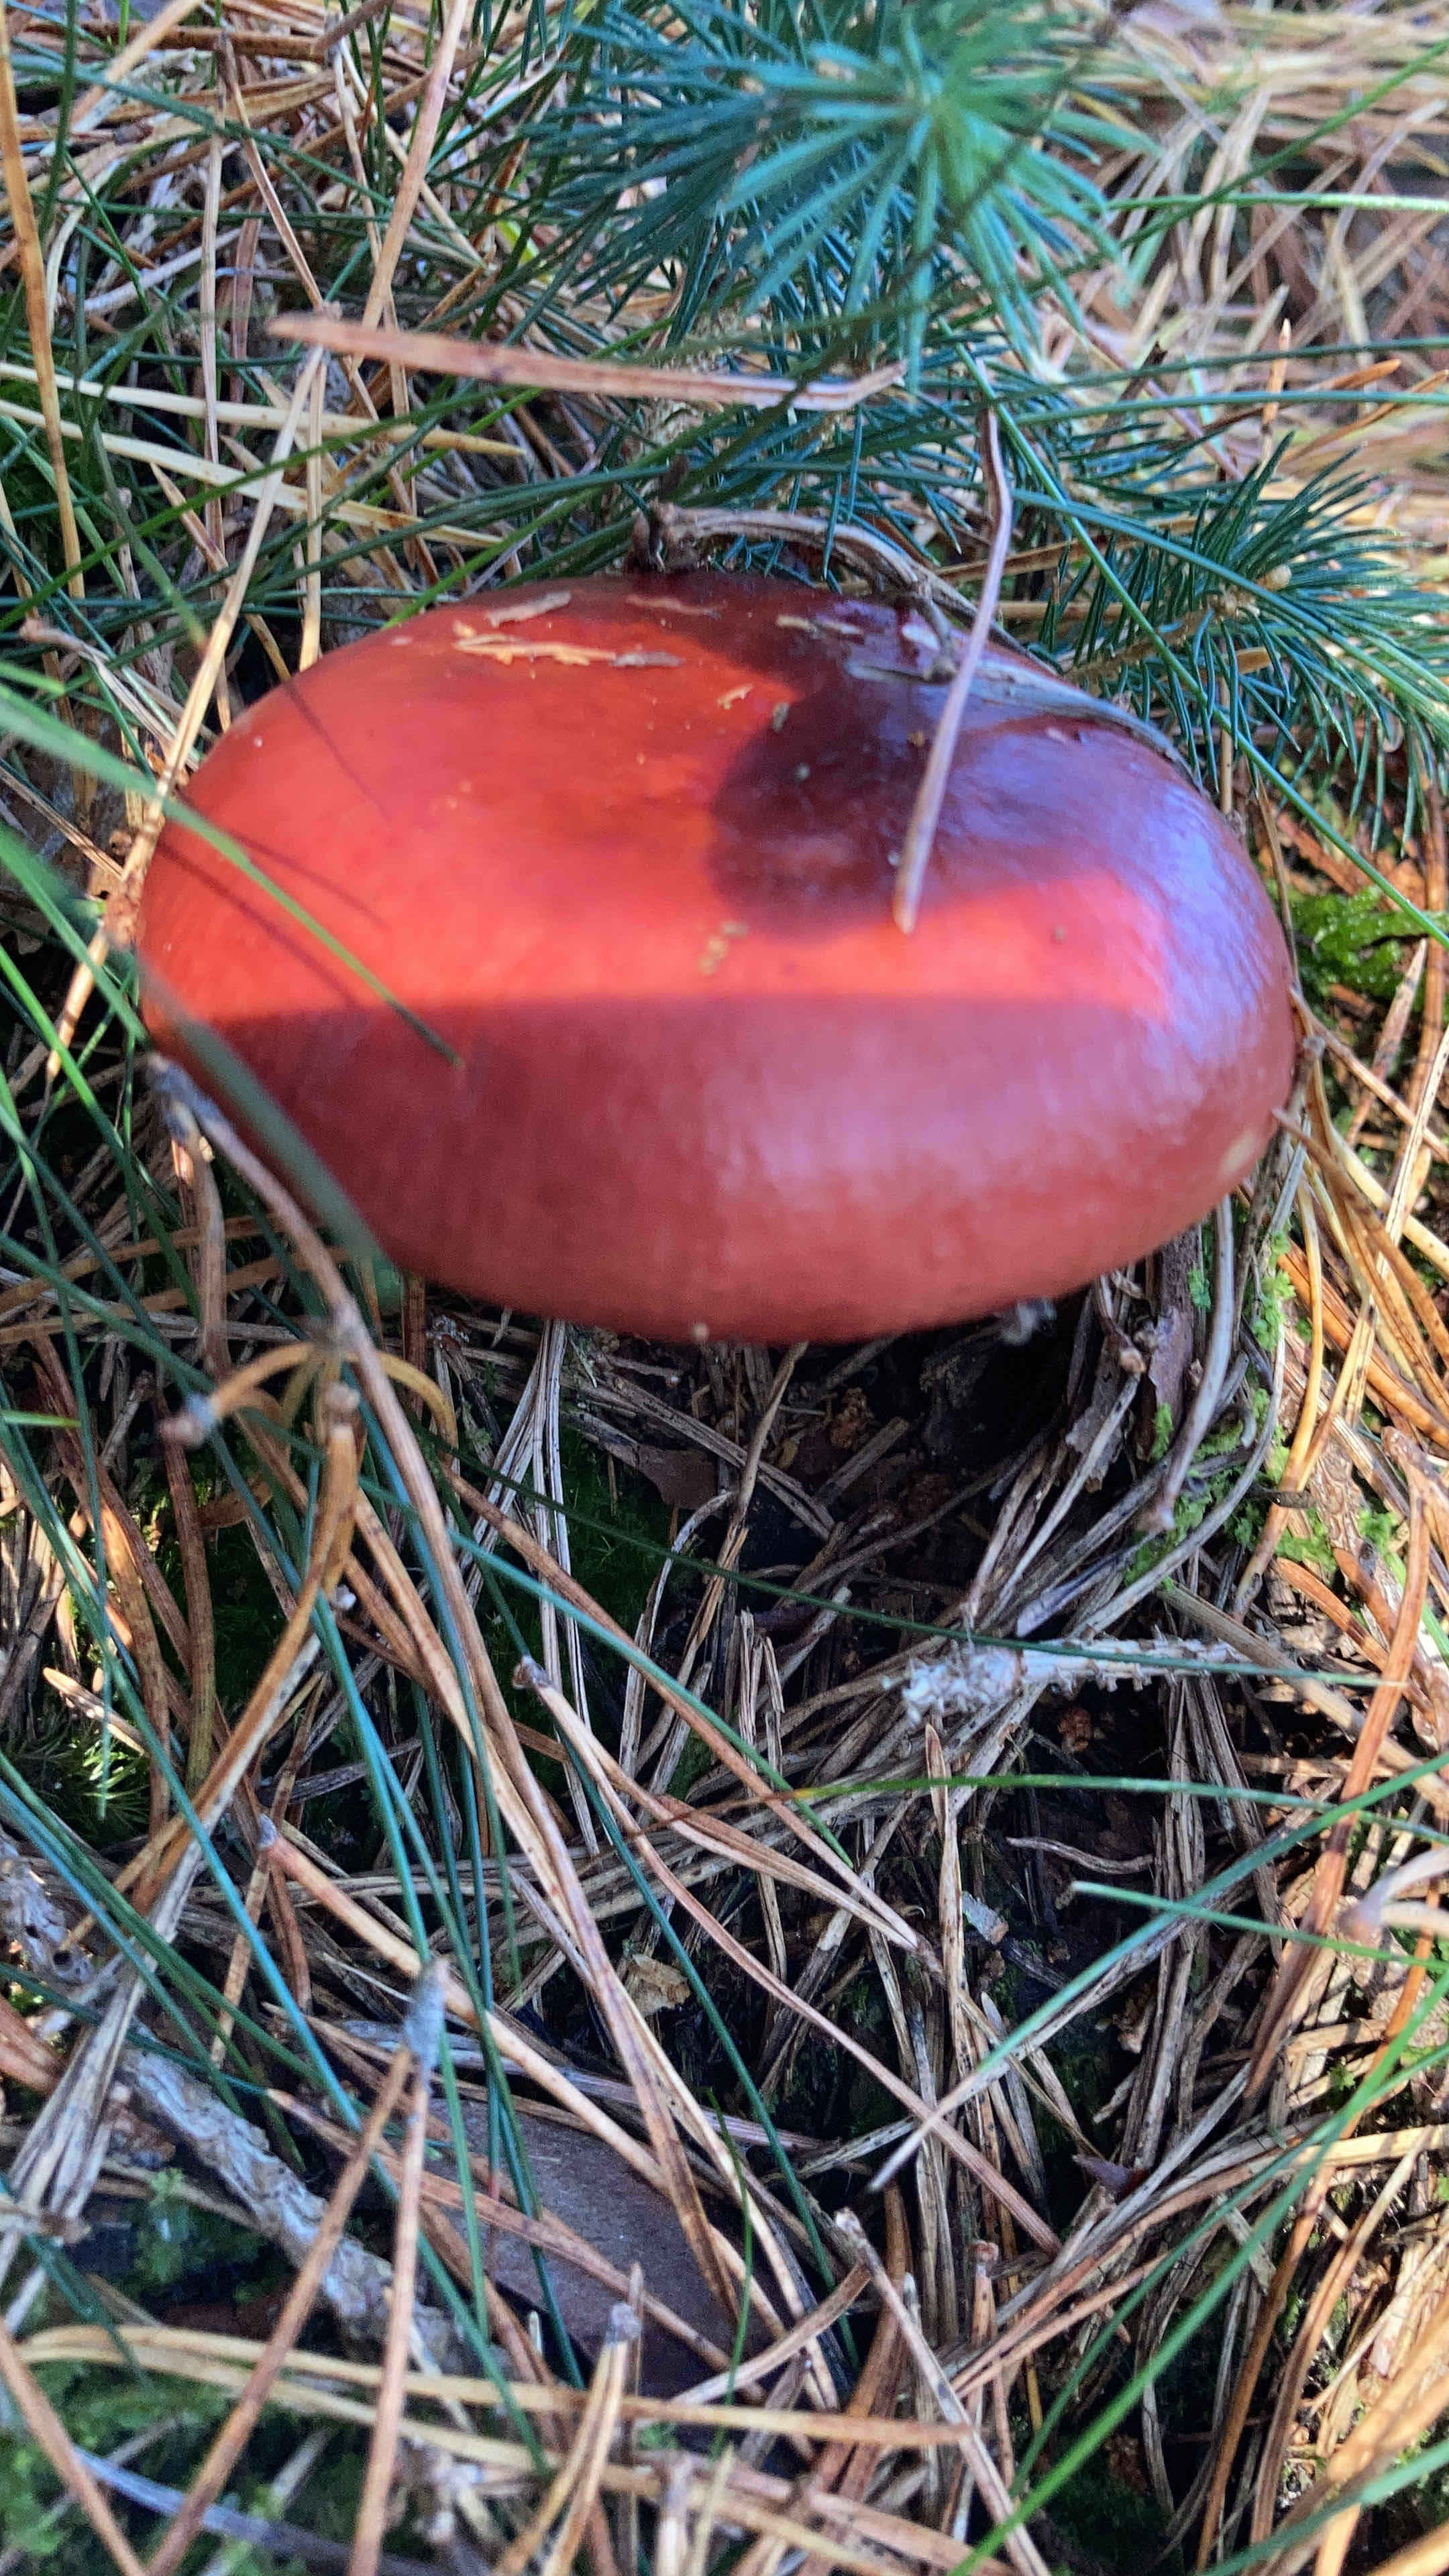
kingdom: Fungi
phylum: Basidiomycota
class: Agaricomycetes
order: Russulales
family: Russulaceae
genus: Russula
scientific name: Russula paludosa
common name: prægtig skørhat
